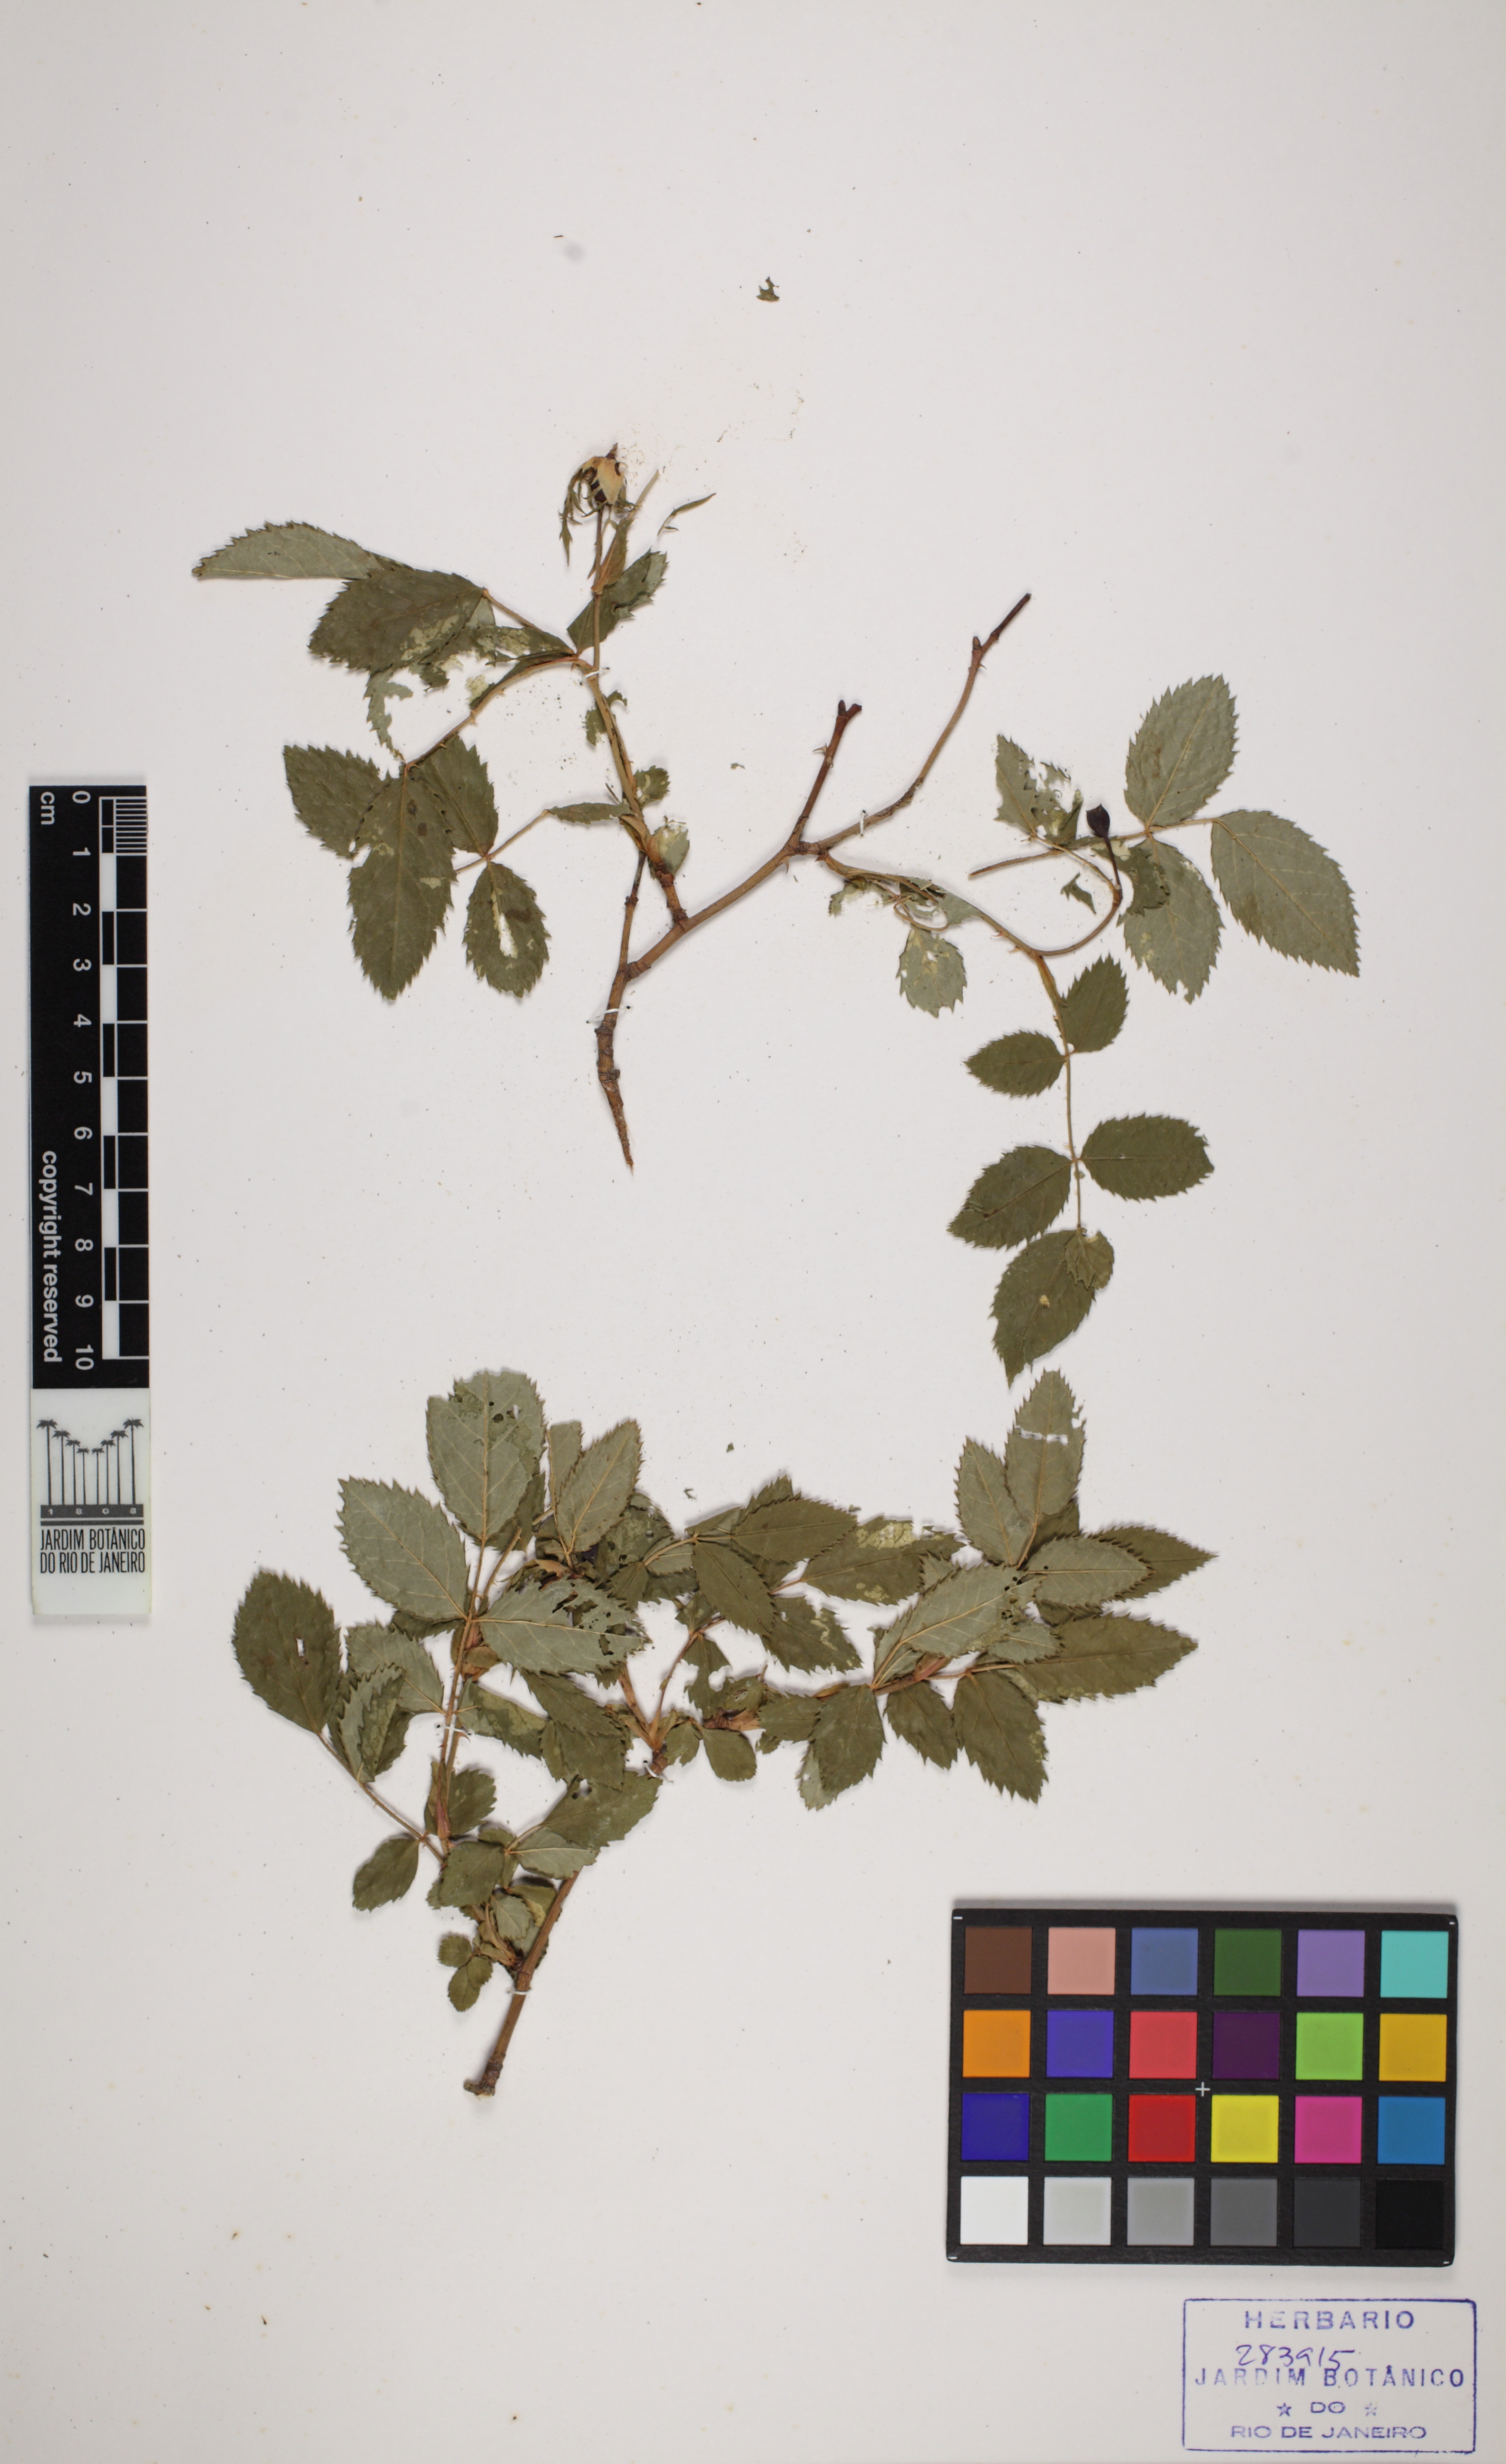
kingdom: Plantae
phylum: Tracheophyta
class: Magnoliopsida
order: Rosales
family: Rosaceae
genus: Rosa
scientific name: Rosa canina
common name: Dog rose
